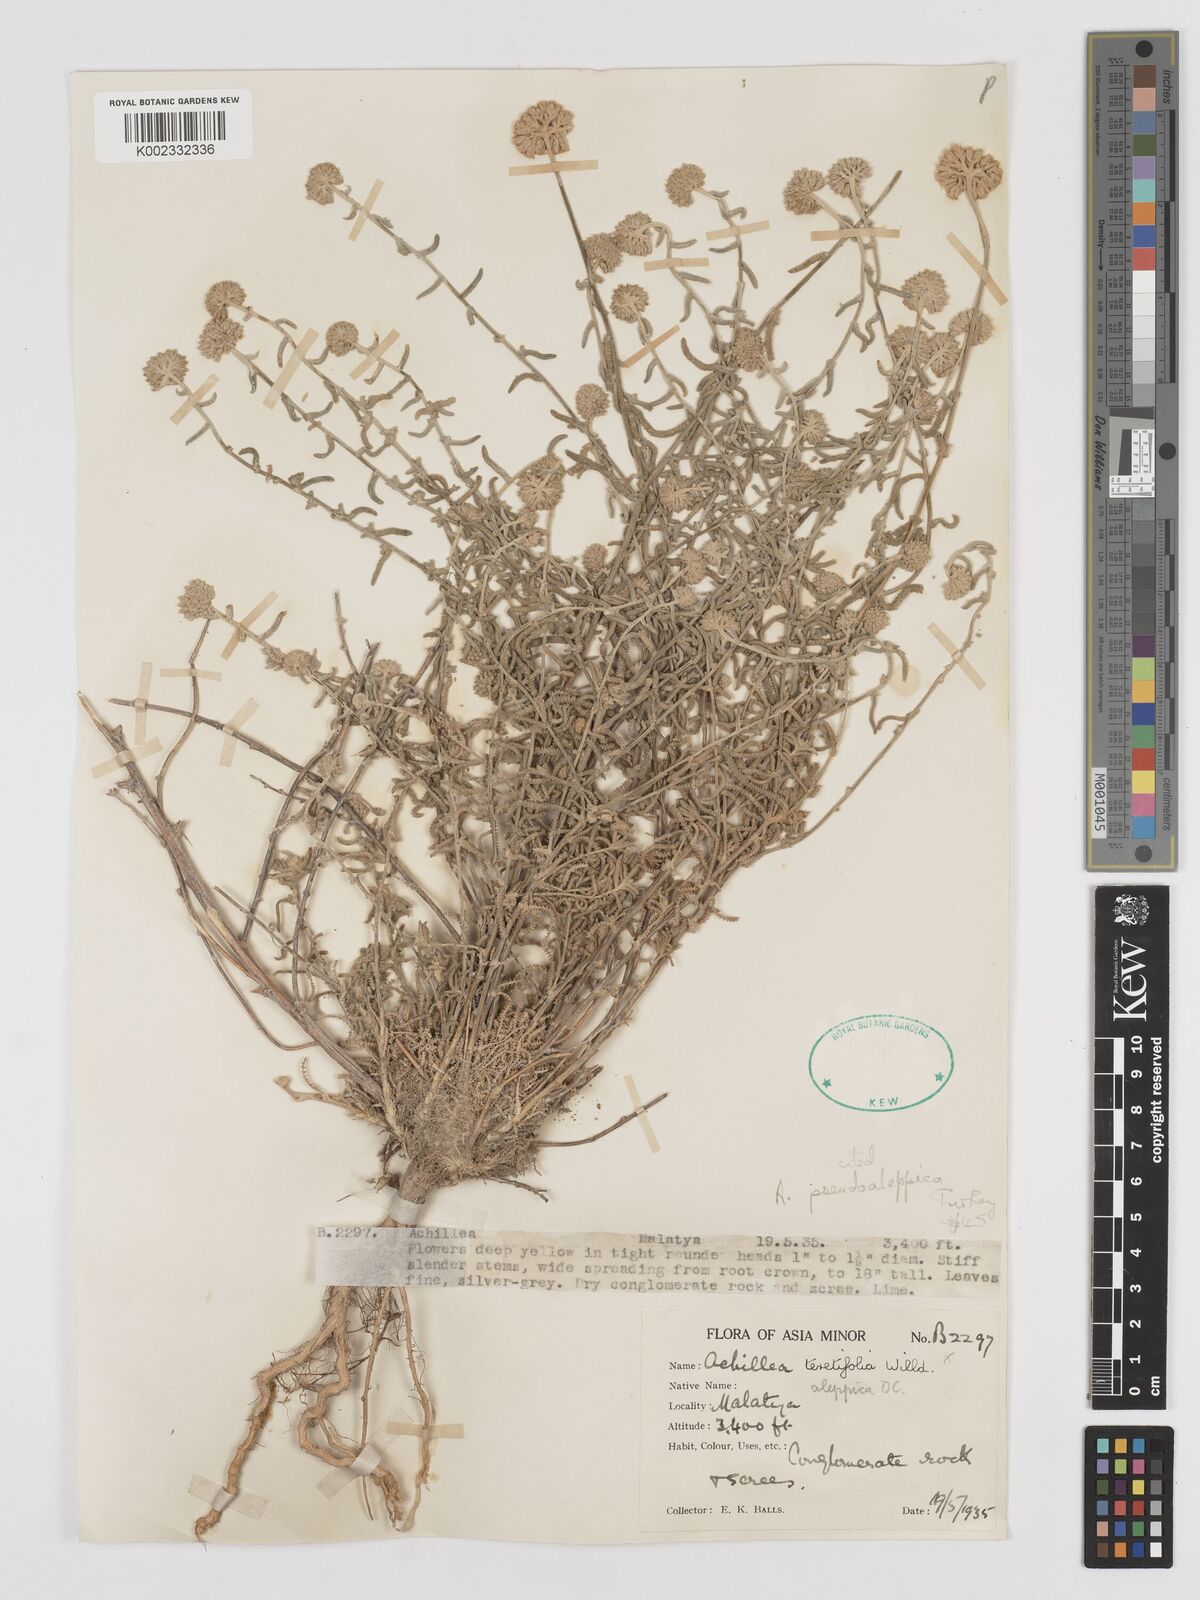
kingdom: Plantae
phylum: Tracheophyta
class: Magnoliopsida
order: Asterales
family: Asteraceae
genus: Achillea
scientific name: Achillea aleppica
